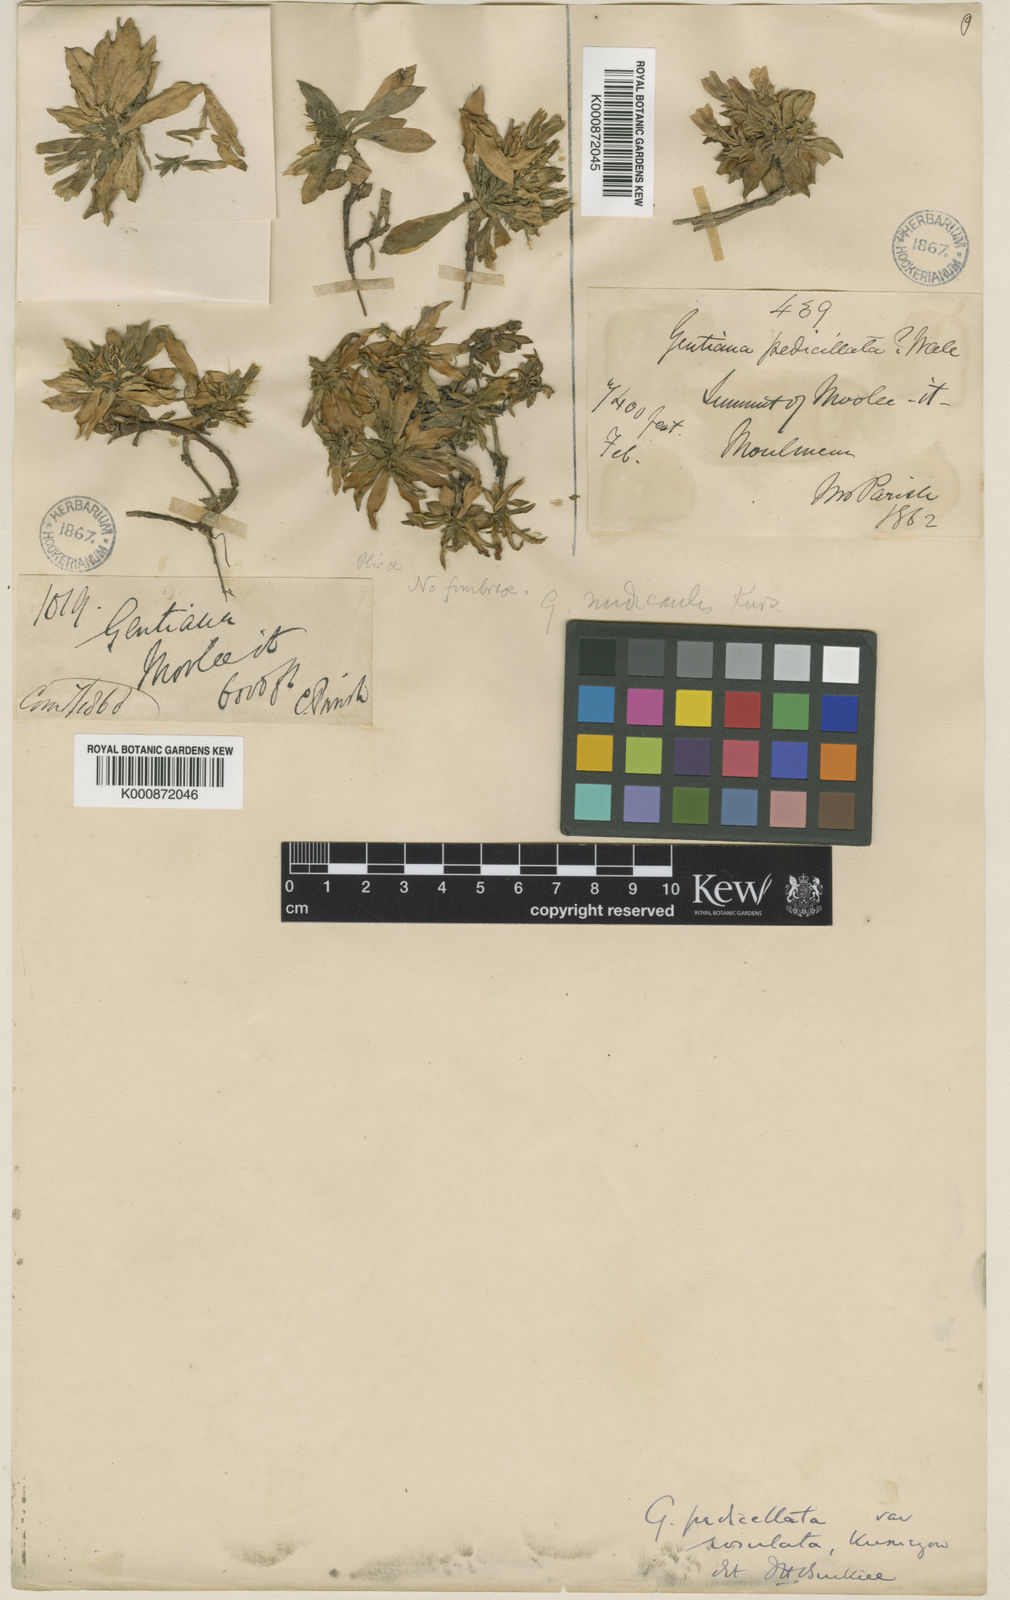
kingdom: Plantae
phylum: Tracheophyta
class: Magnoliopsida
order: Gentianales
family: Gentianaceae
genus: Gentiana
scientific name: Gentiana loureiroi
